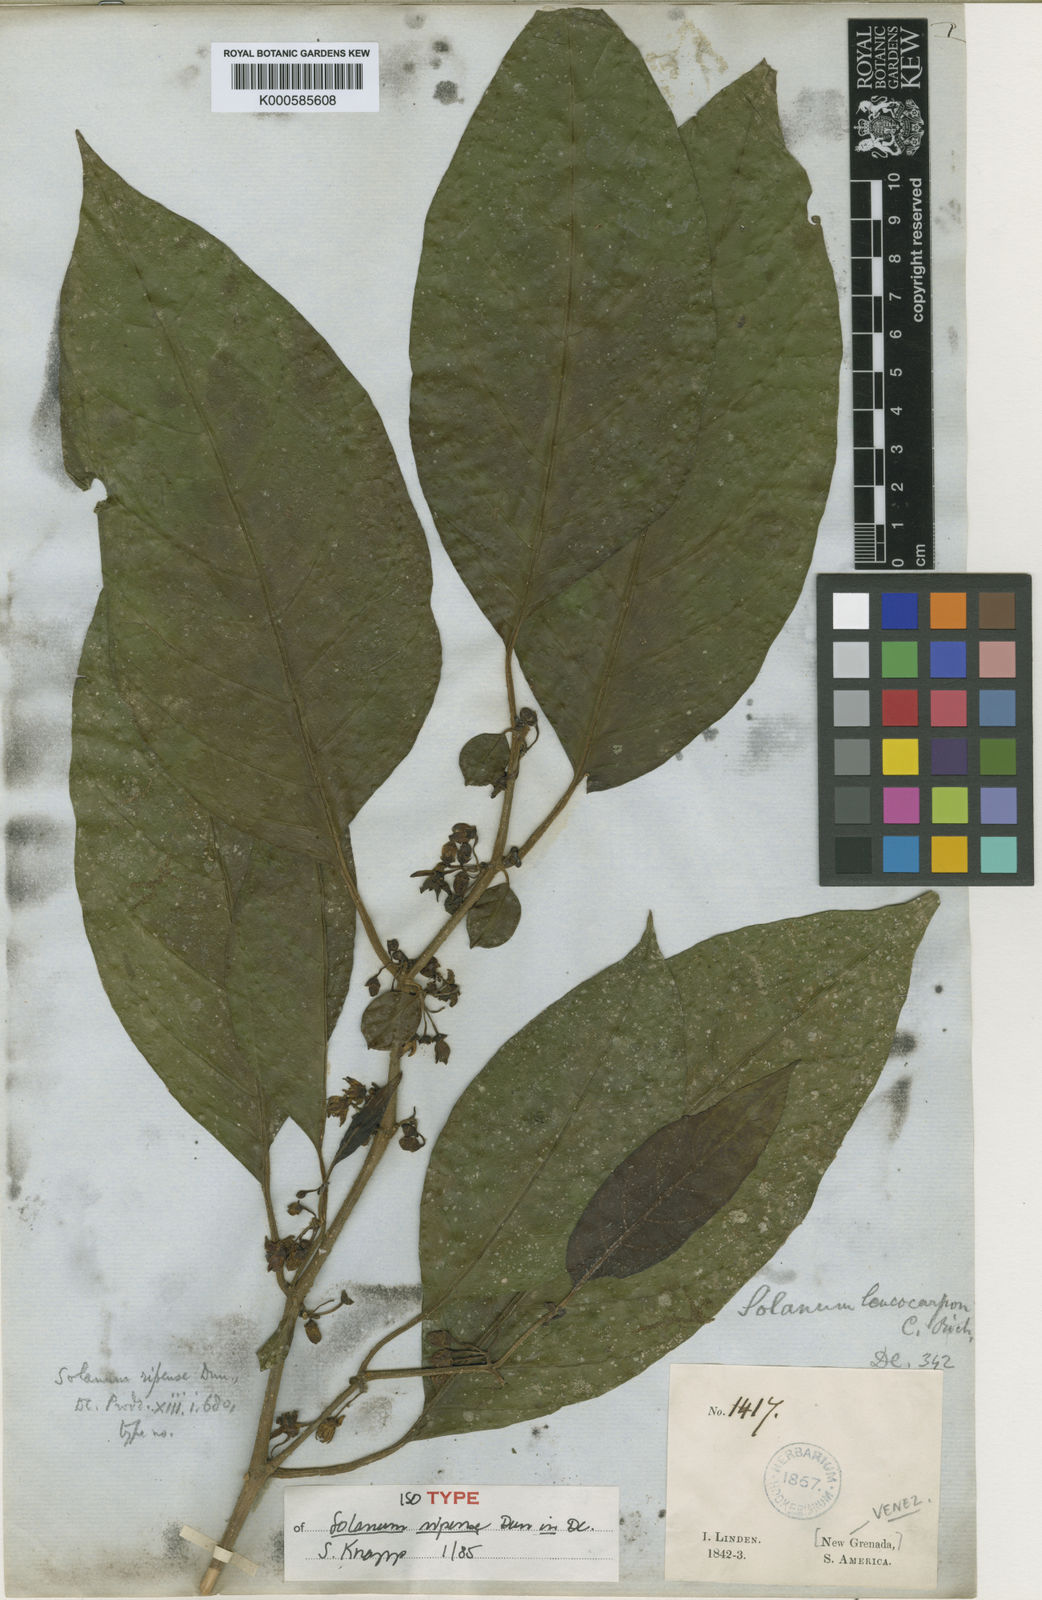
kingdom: Plantae
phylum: Tracheophyta
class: Magnoliopsida
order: Solanales
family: Solanaceae
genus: Solanum
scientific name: Solanum ripense
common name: Mérida nightshade
